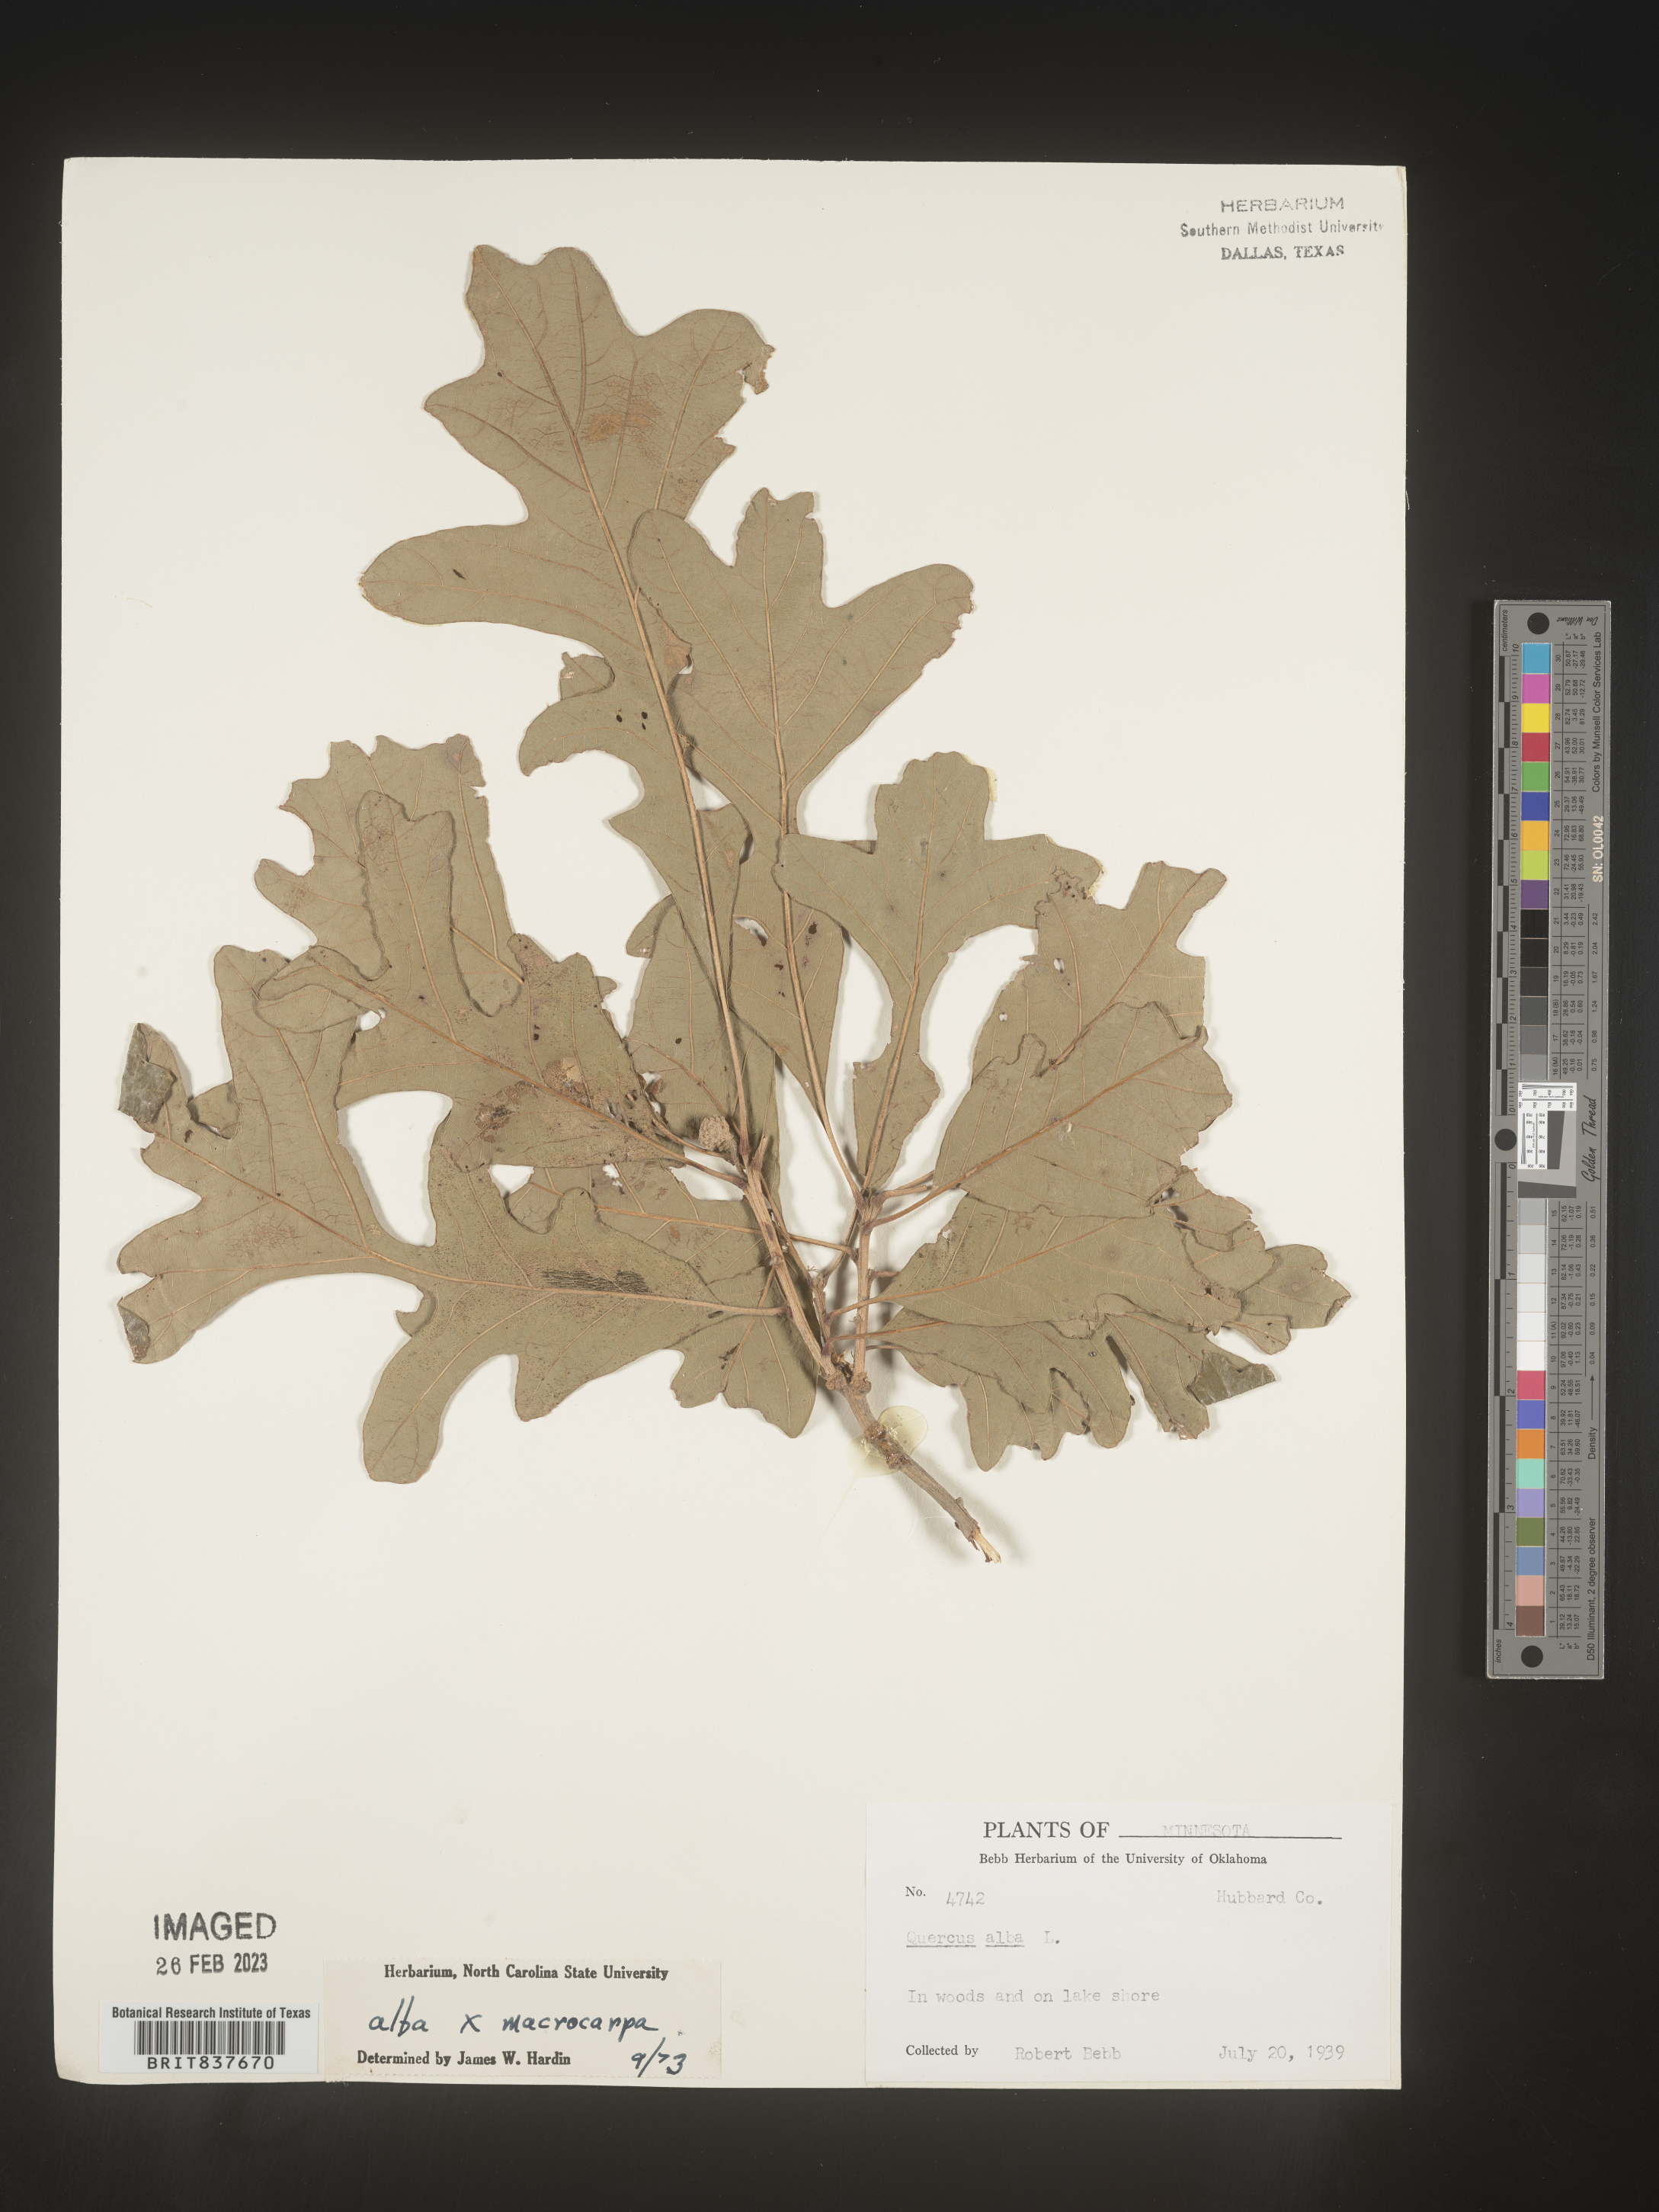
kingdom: Plantae
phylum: Tracheophyta
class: Magnoliopsida
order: Fagales
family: Fagaceae
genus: Quercus
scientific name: Quercus alba
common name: White oak
